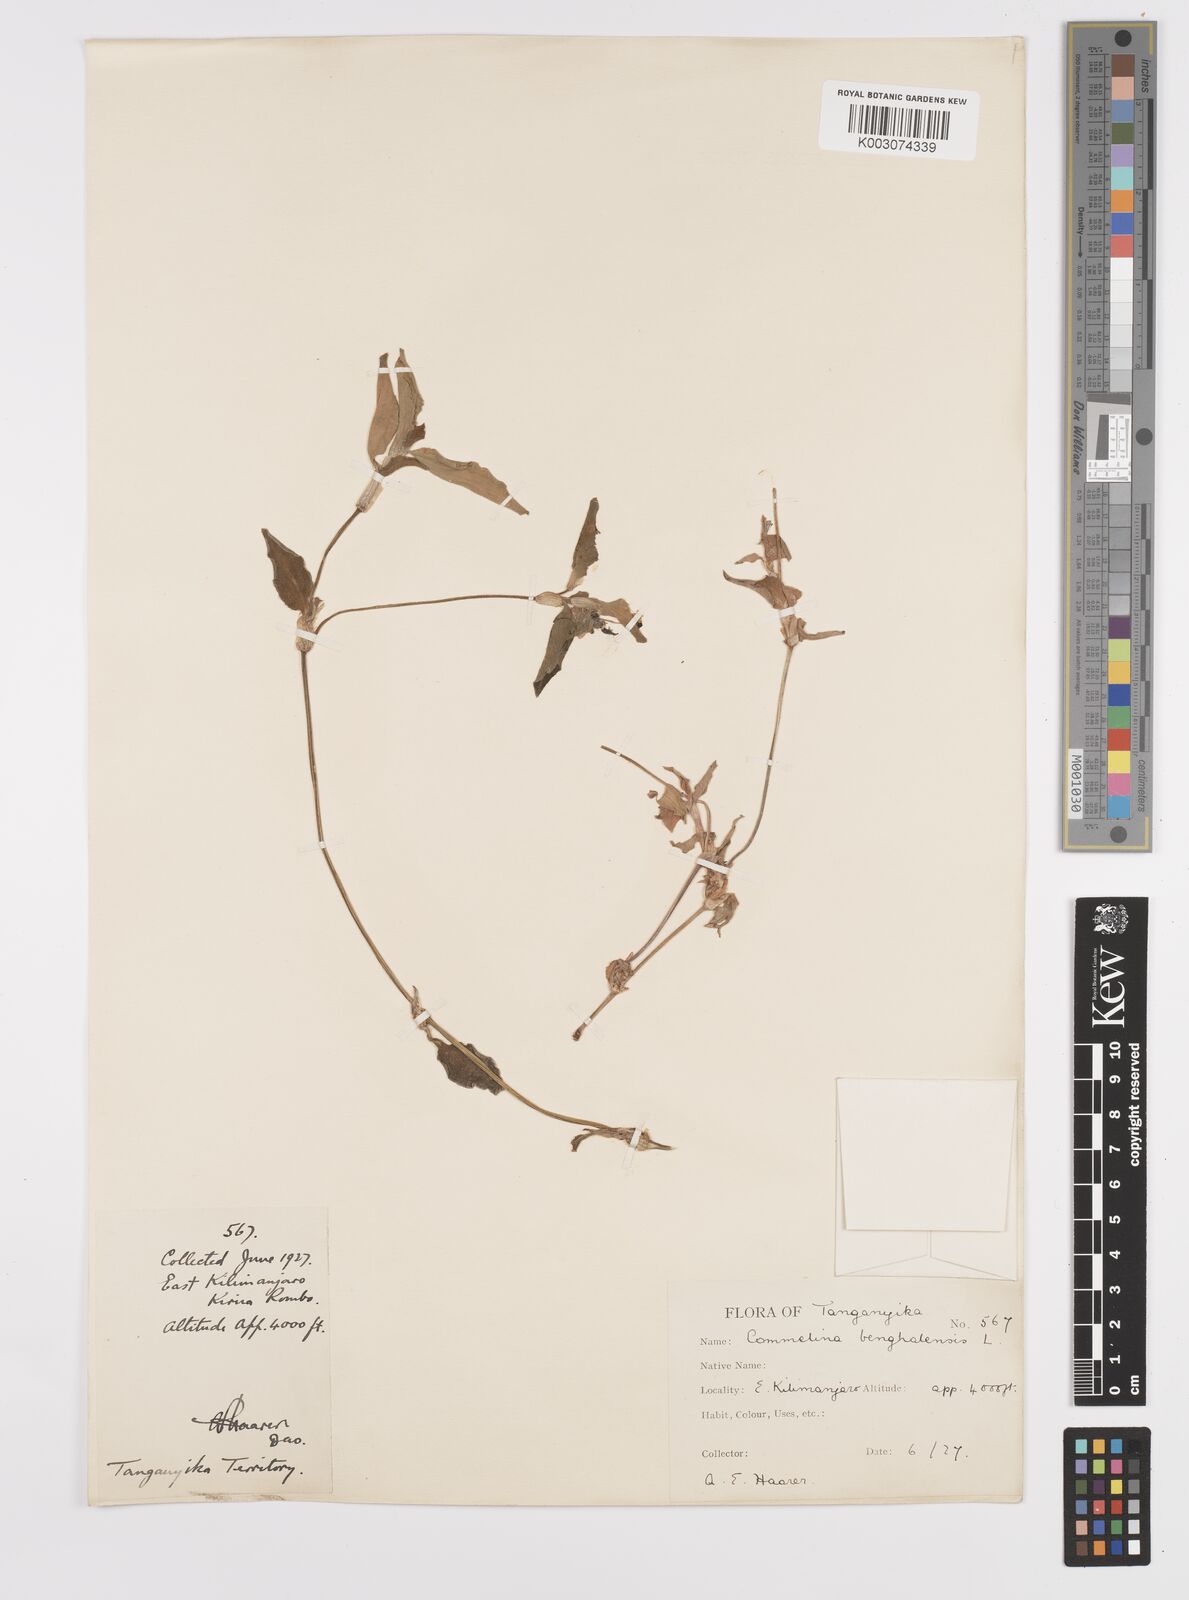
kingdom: Plantae
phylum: Tracheophyta
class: Liliopsida
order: Commelinales
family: Commelinaceae
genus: Commelina
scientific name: Commelina benghalensis
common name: Jio
